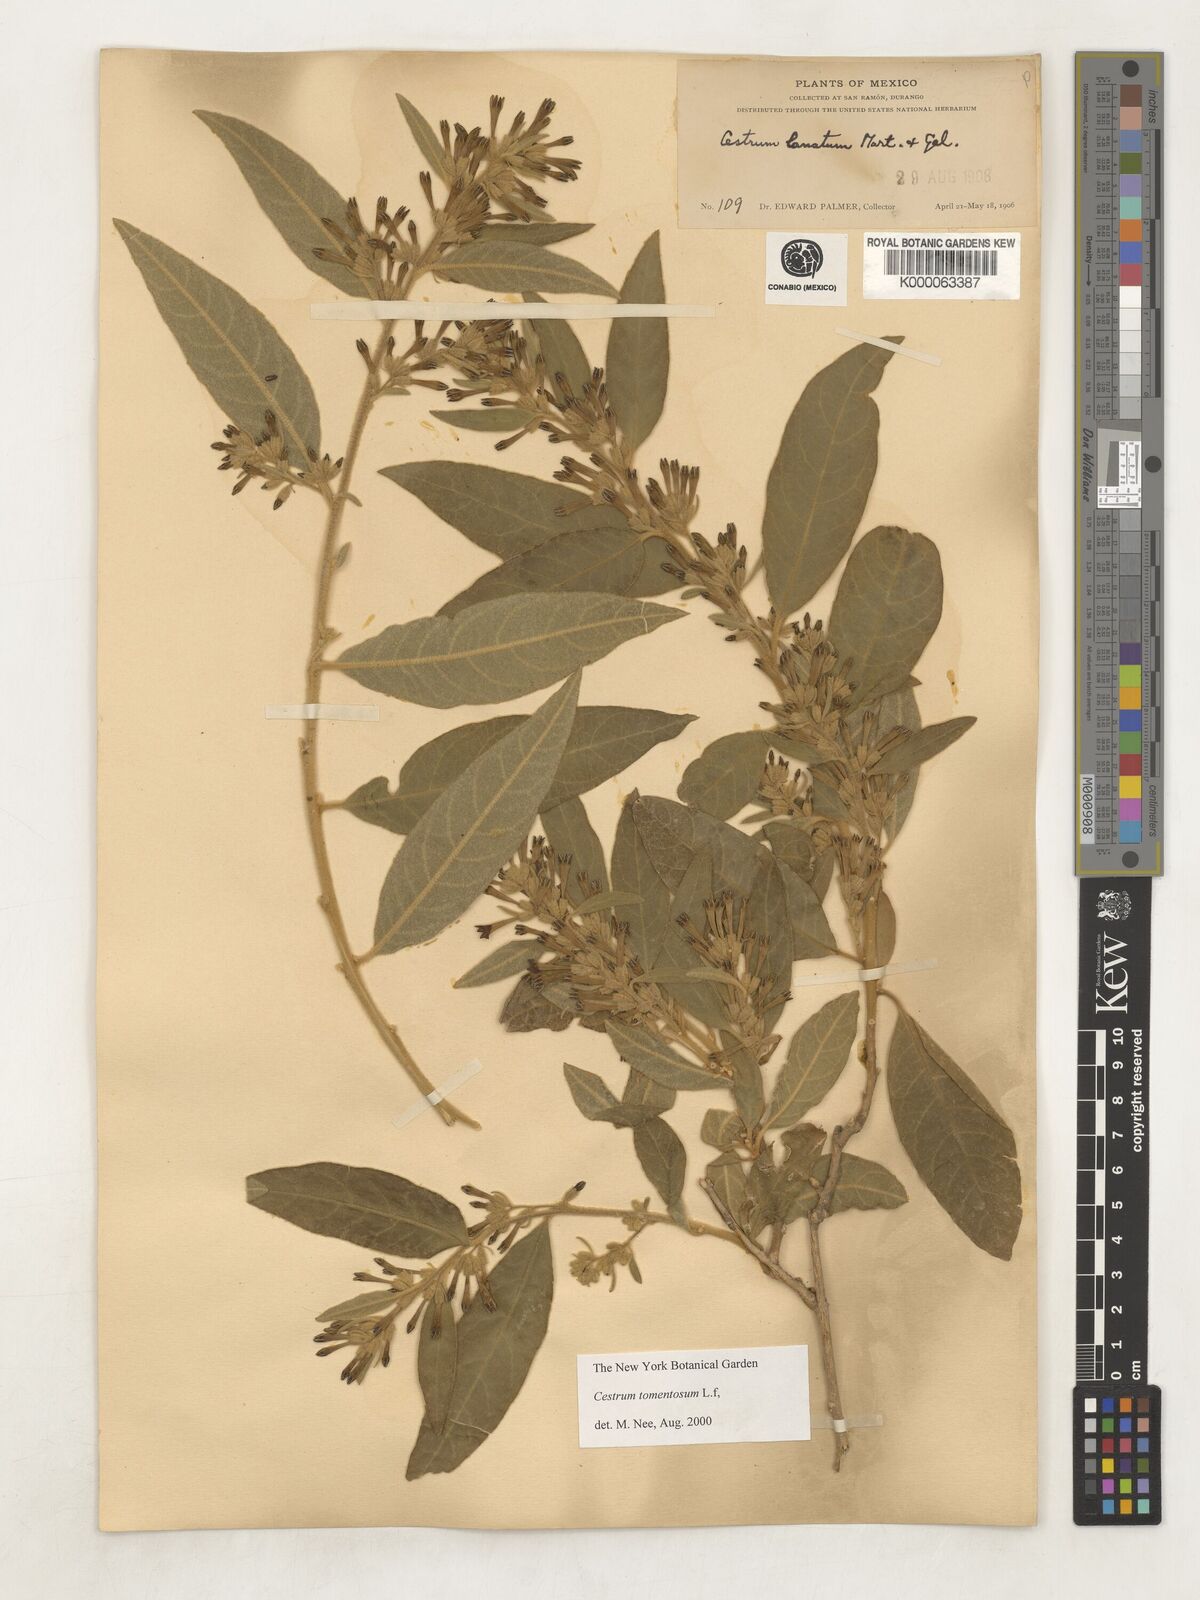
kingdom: Plantae
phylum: Tracheophyta
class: Magnoliopsida
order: Solanales
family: Solanaceae
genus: Cestrum
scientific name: Cestrum tomentosum
